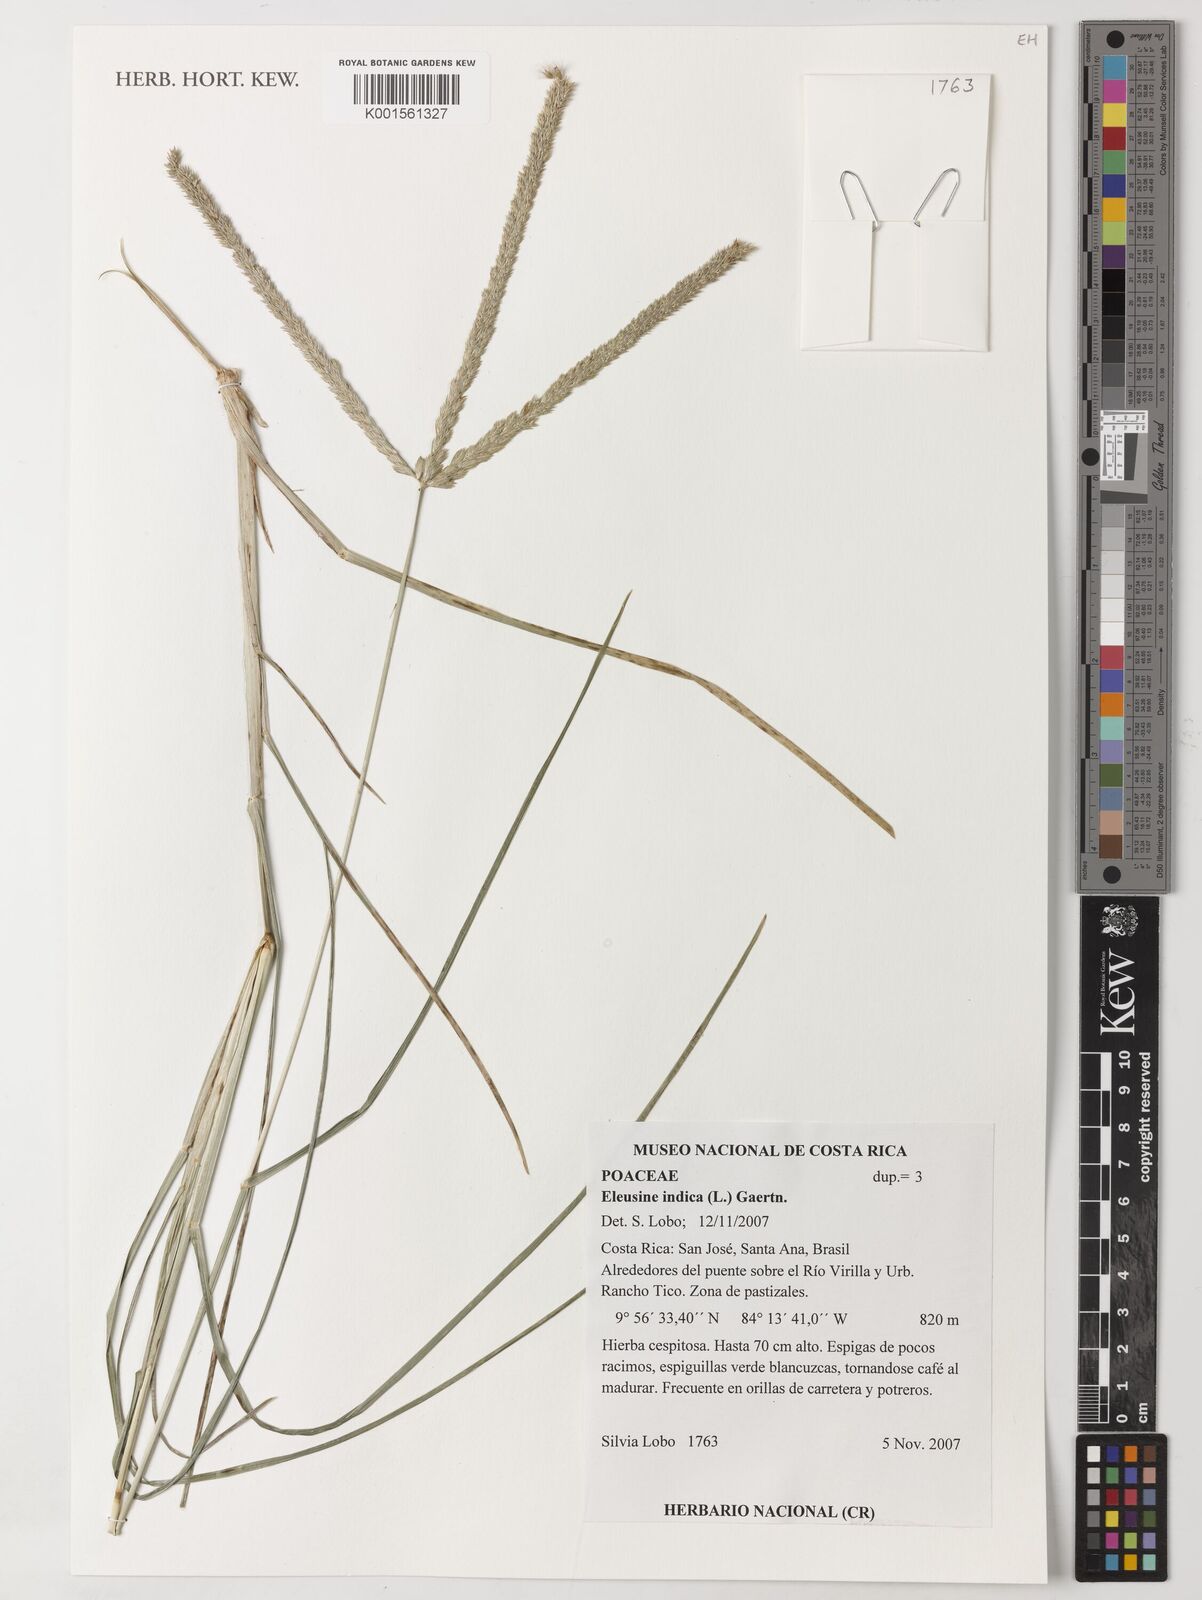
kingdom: Plantae
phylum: Tracheophyta
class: Liliopsida
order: Poales
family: Poaceae
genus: Eleusine
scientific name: Eleusine indica
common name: Yard-grass
